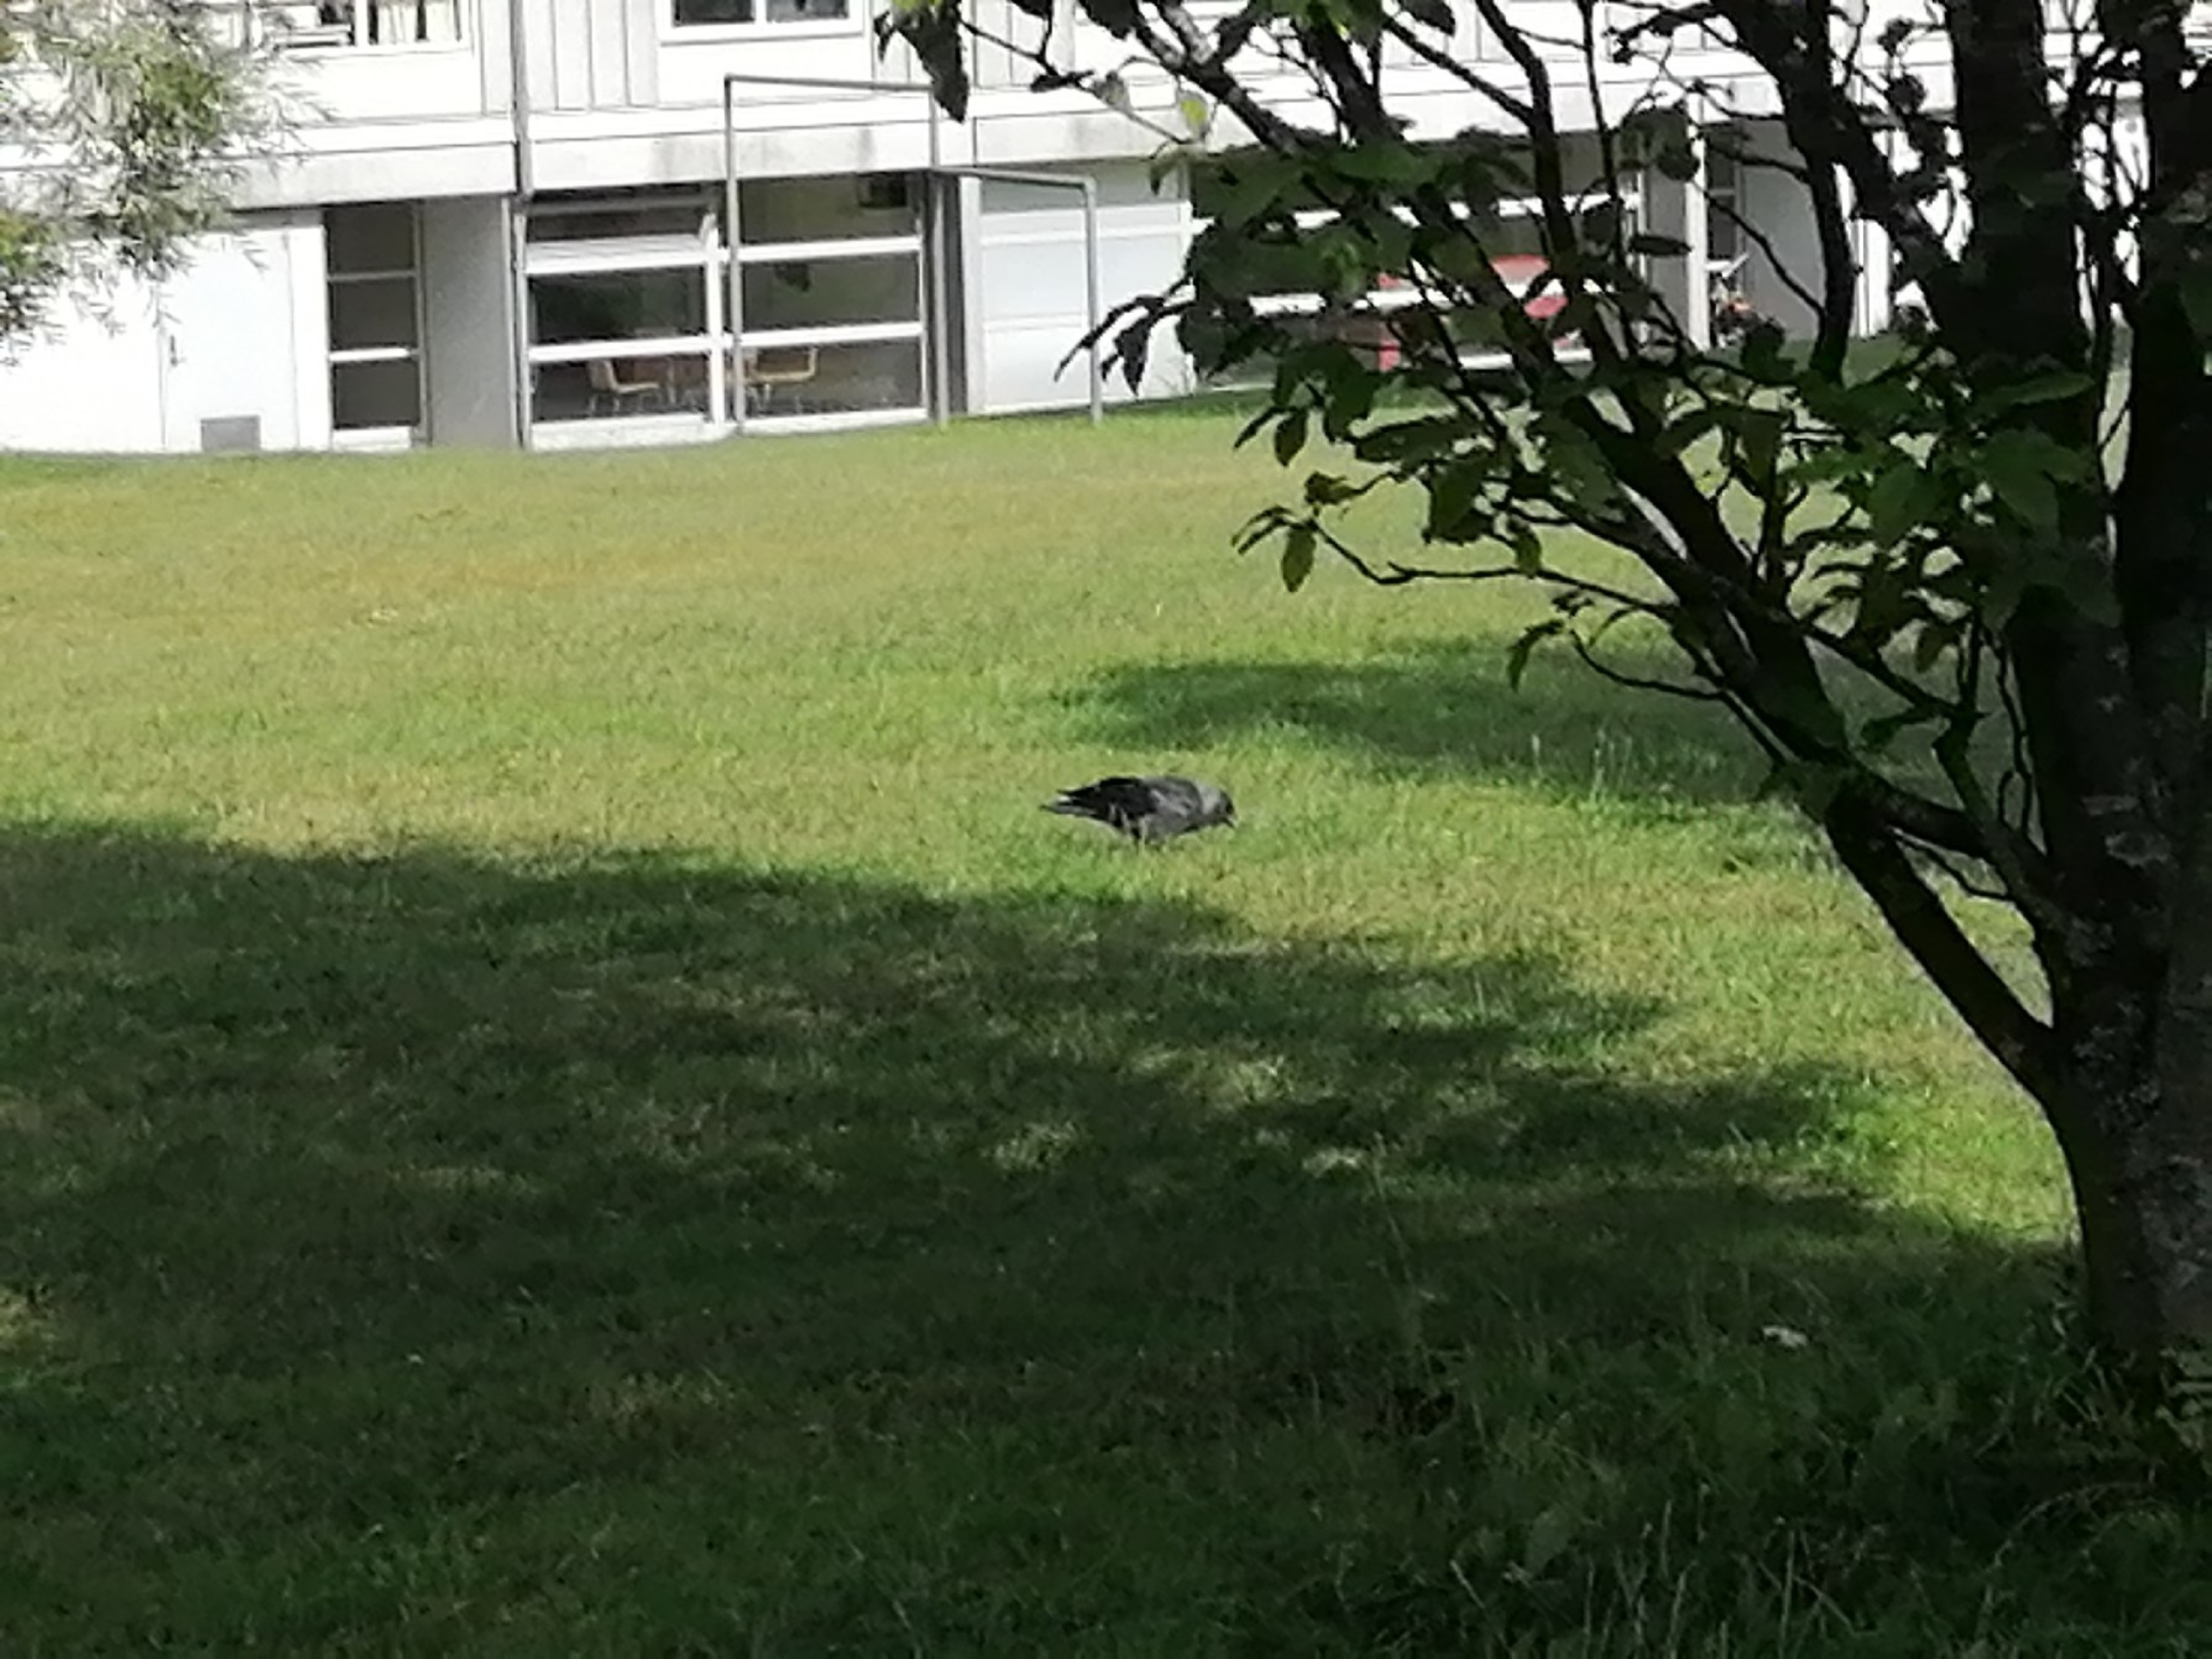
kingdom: Animalia
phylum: Chordata
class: Aves
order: Passeriformes
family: Corvidae
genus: Coloeus
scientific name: Coloeus monedula
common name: Allike
